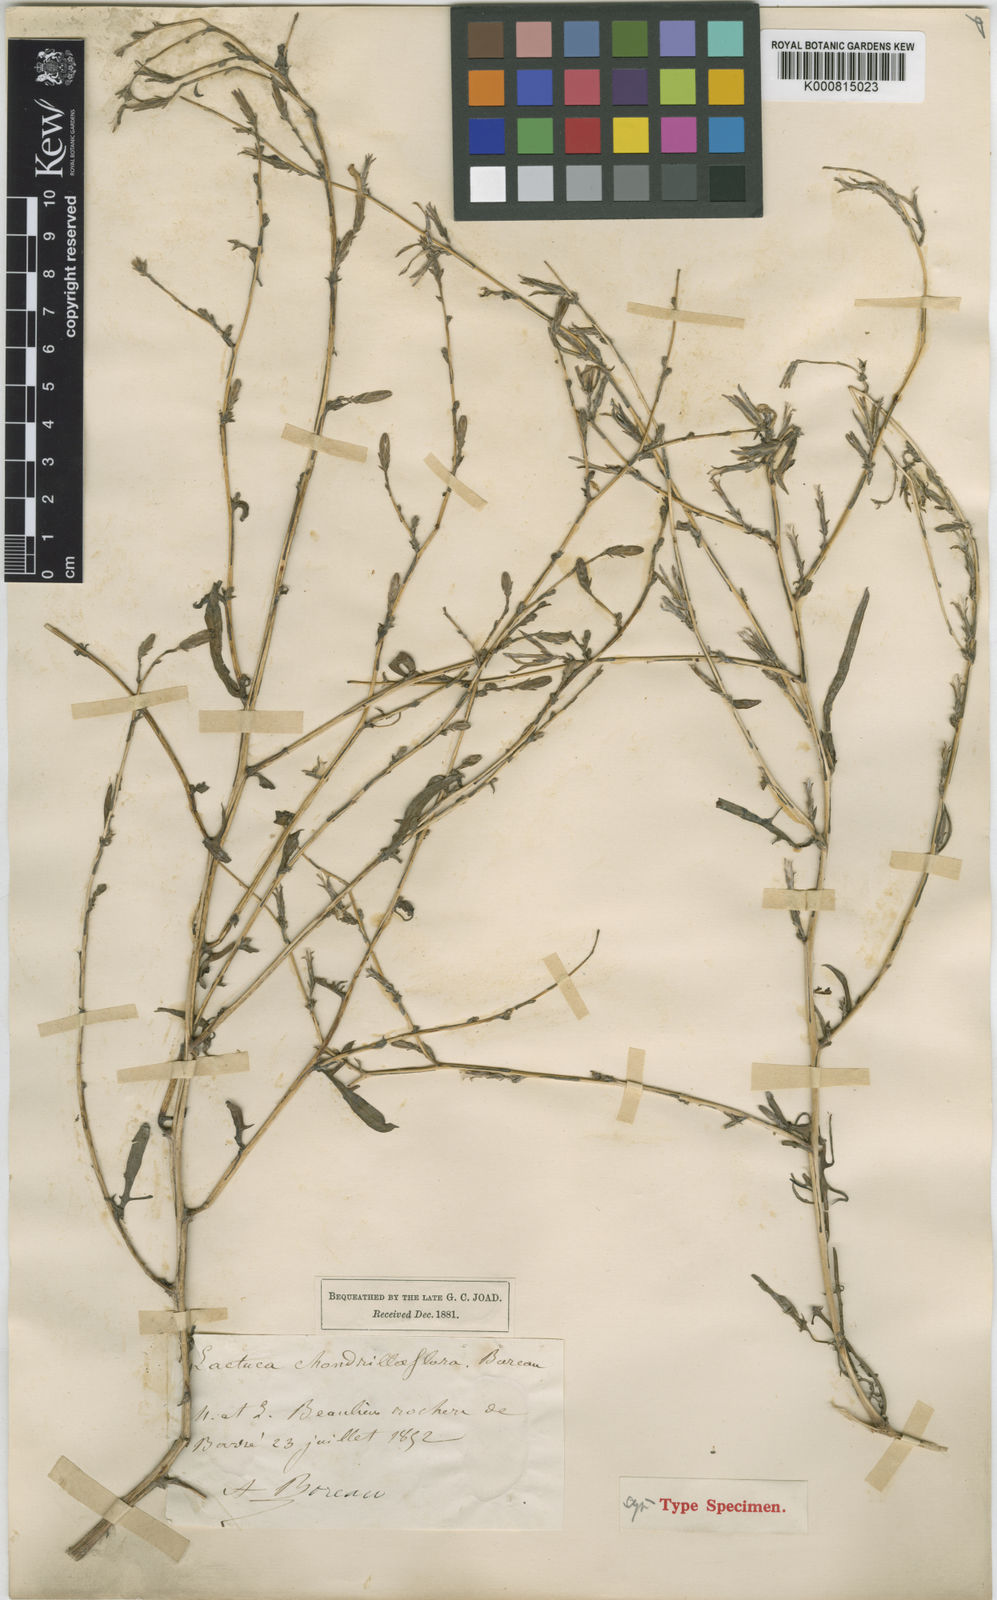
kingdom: Plantae
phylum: Tracheophyta
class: Magnoliopsida
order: Asterales
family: Asteraceae
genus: Lactuca
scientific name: Lactuca viminea
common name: Pliant lettuce
